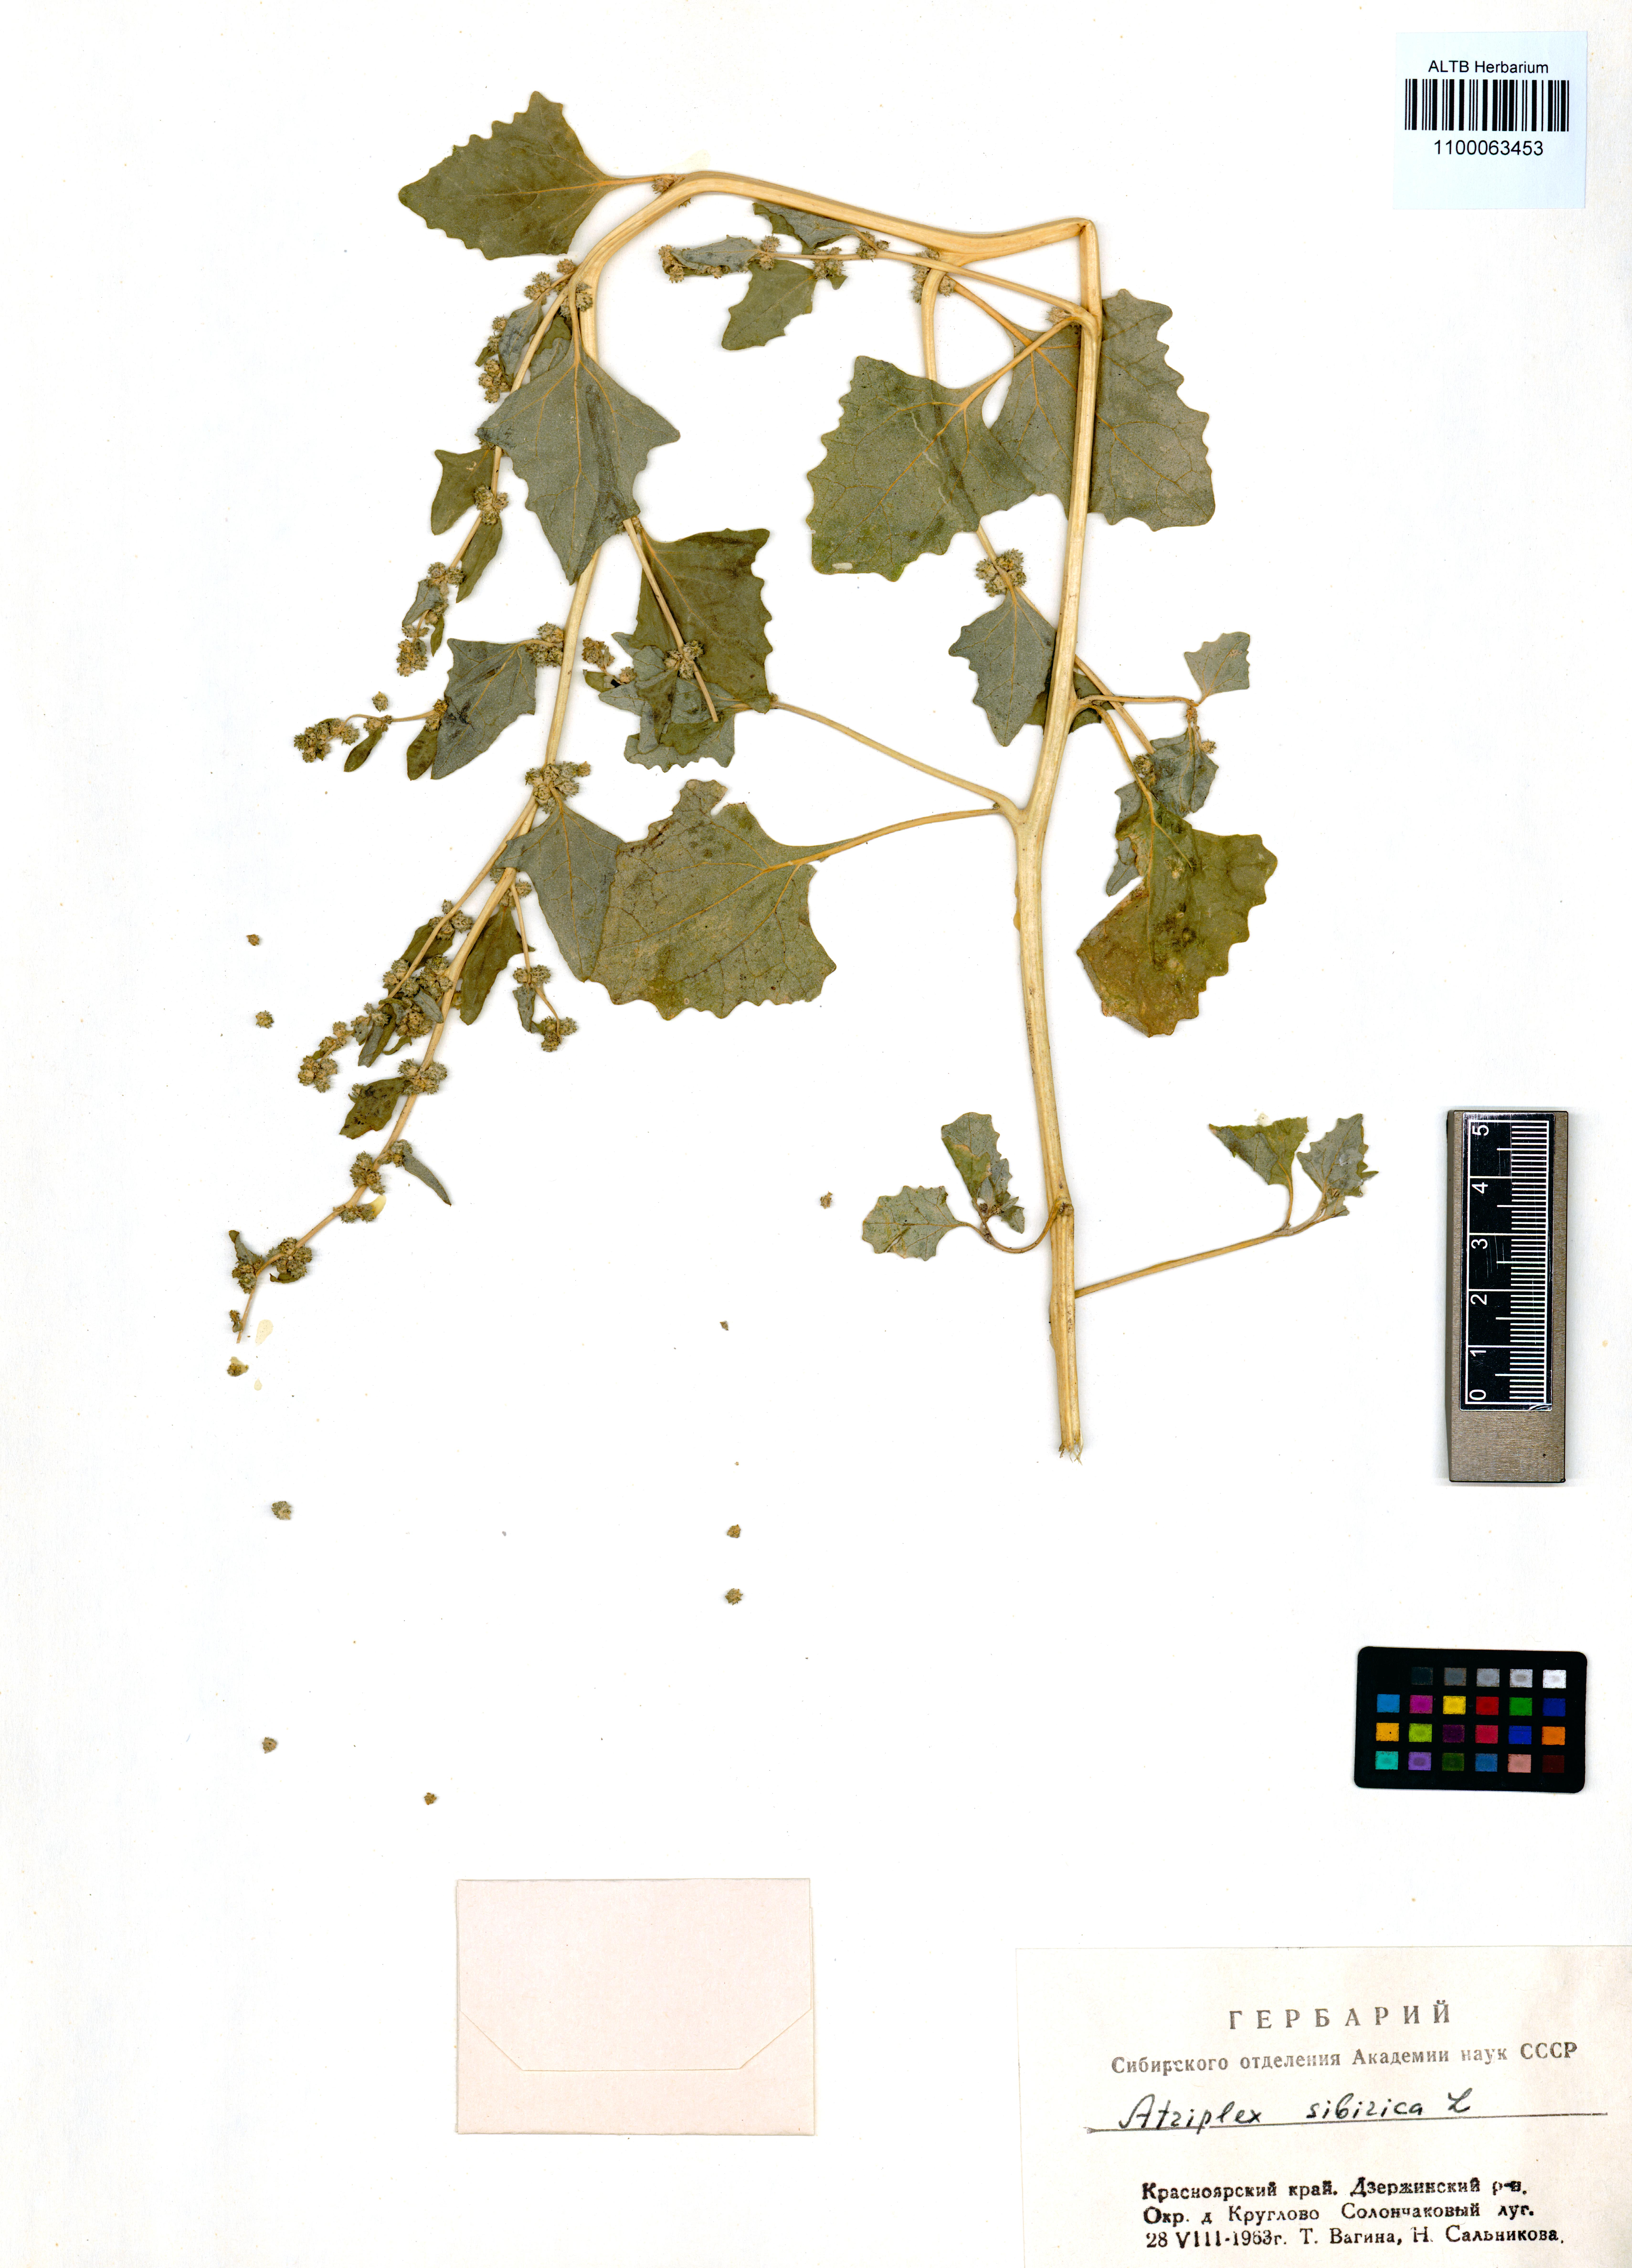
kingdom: Plantae
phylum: Tracheophyta
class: Magnoliopsida
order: Caryophyllales
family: Amaranthaceae
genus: Atriplex
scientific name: Atriplex sibirica
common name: Siberian saltbush
